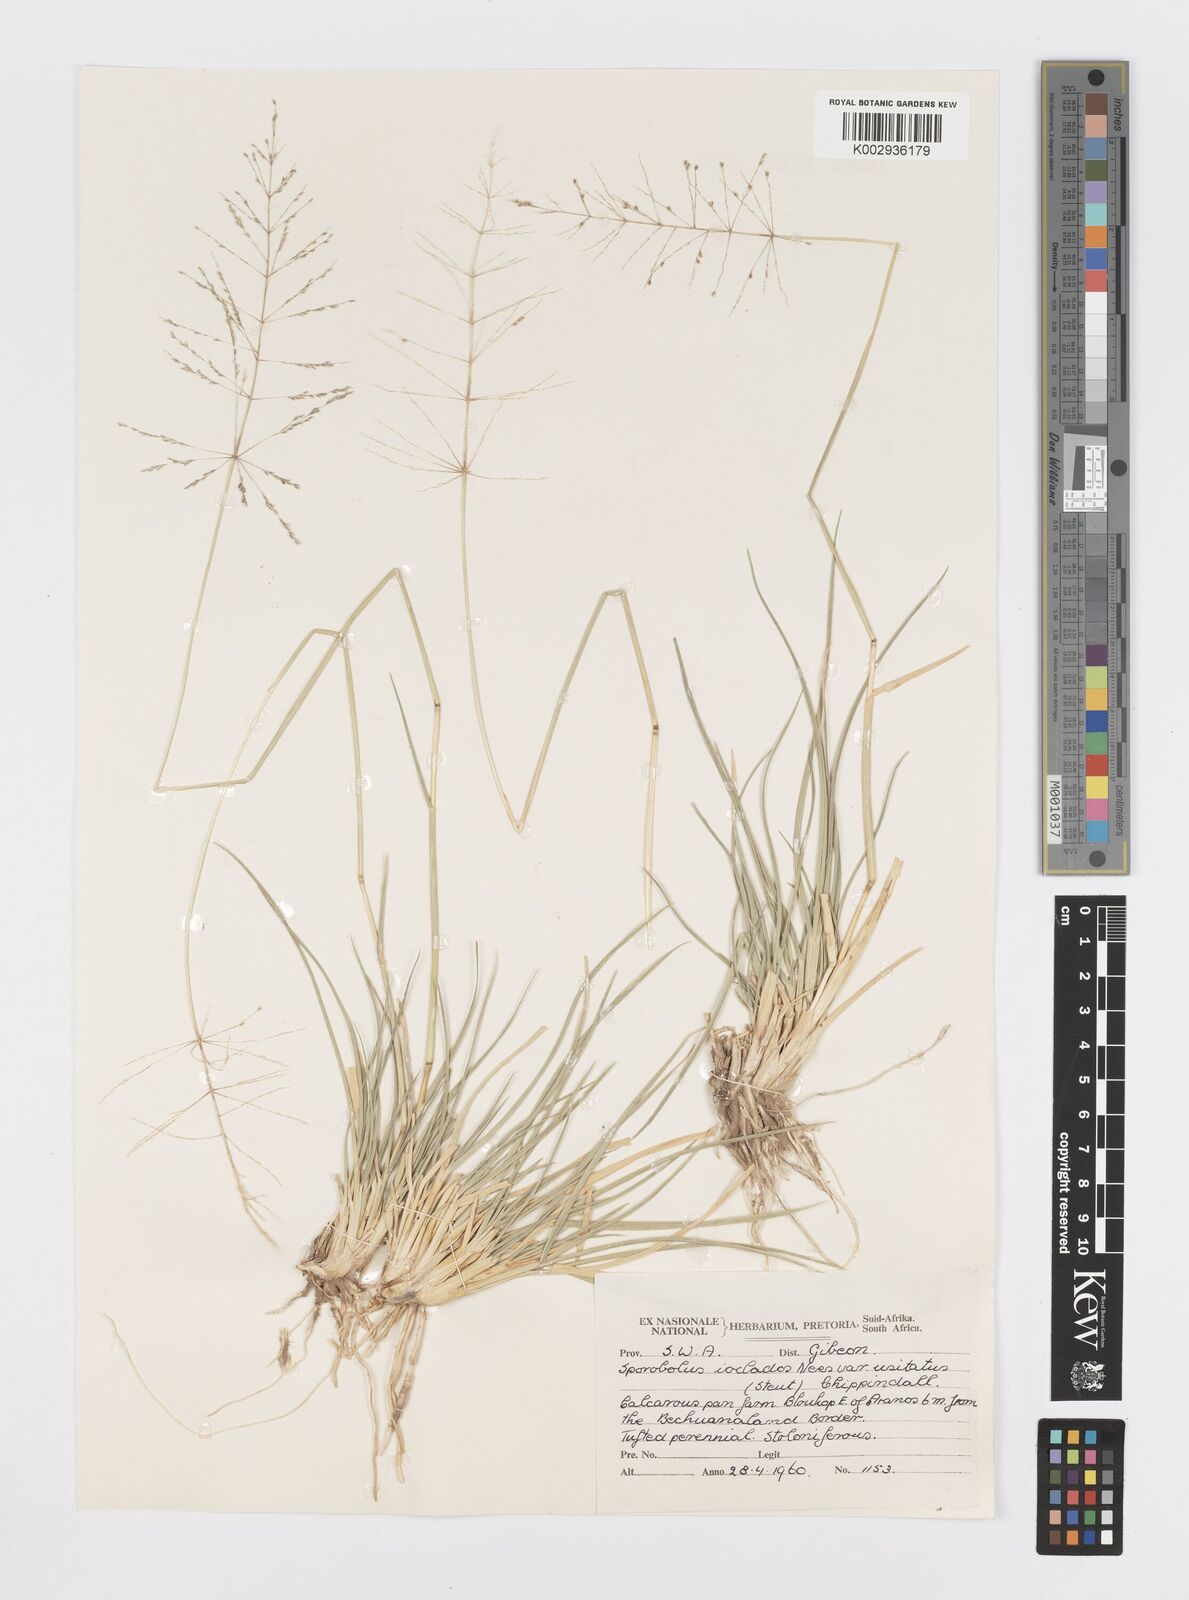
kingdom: Plantae
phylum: Tracheophyta
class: Liliopsida
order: Poales
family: Poaceae
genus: Sporobolus
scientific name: Sporobolus ioclados
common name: Pan dropseed
